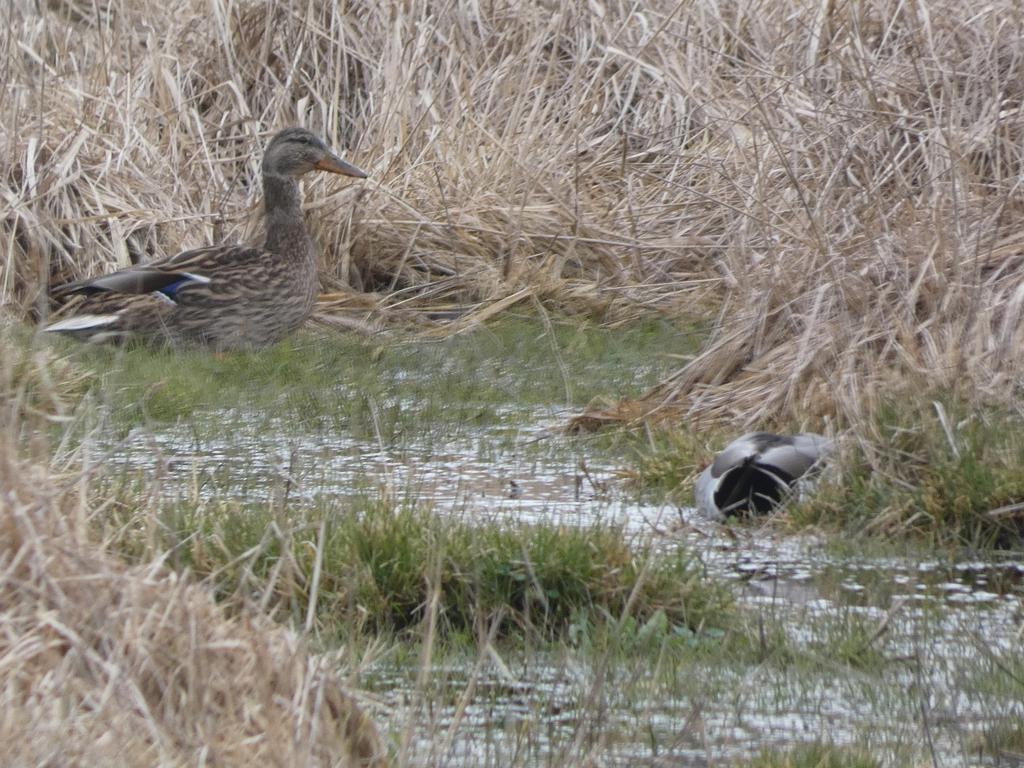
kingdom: Animalia
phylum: Chordata
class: Aves
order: Anseriformes
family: Anatidae
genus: Anas
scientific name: Anas platyrhynchos
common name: Gråand
